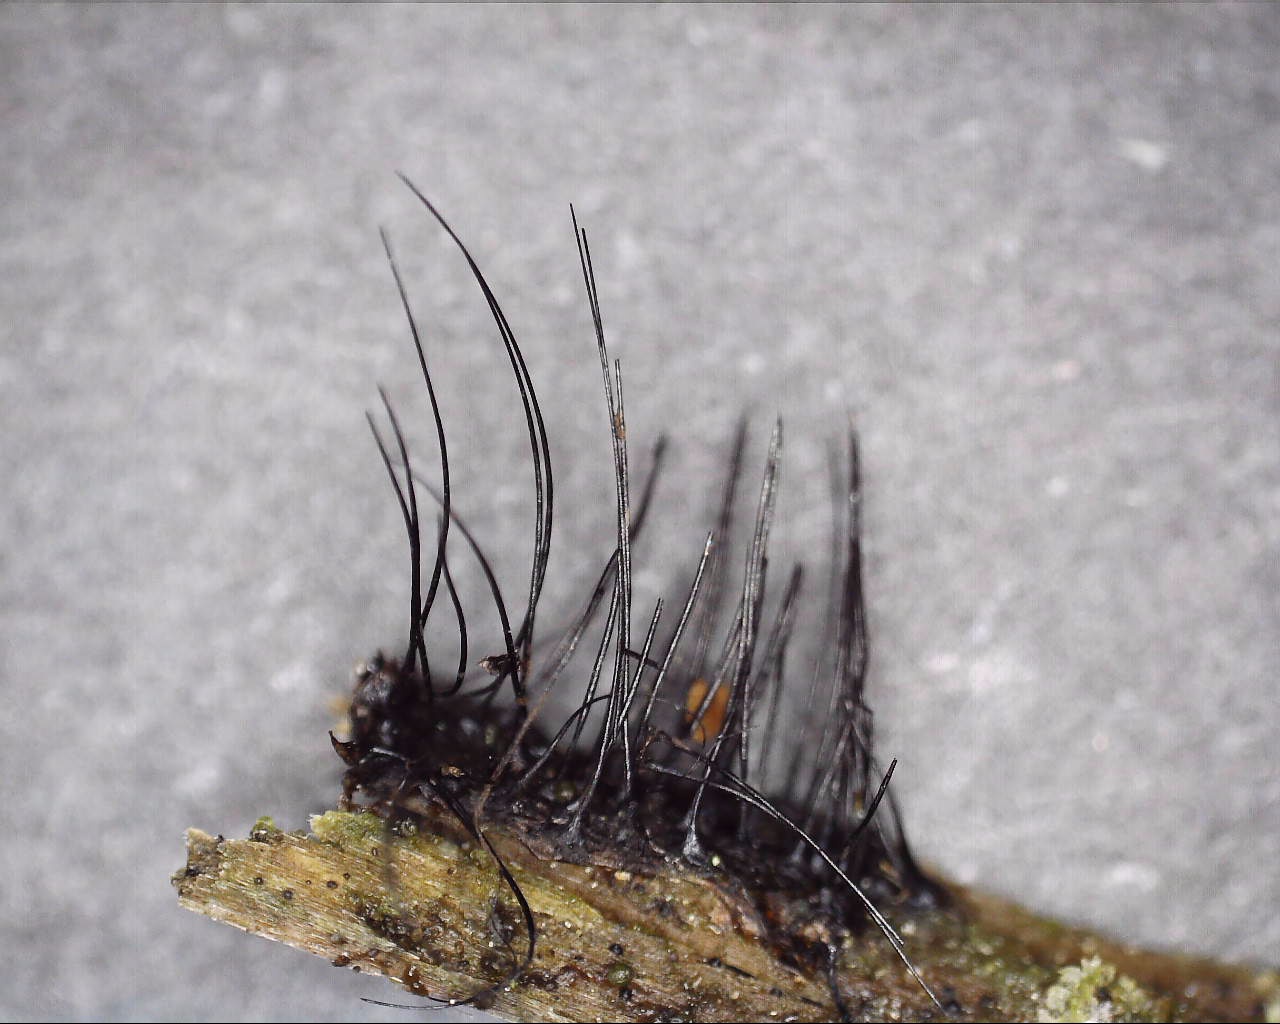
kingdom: Protozoa
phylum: Mycetozoa
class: Myxomycetes
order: Stemonitidales
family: Stemonitidaceae
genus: Stemonitis
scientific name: Stemonitis
